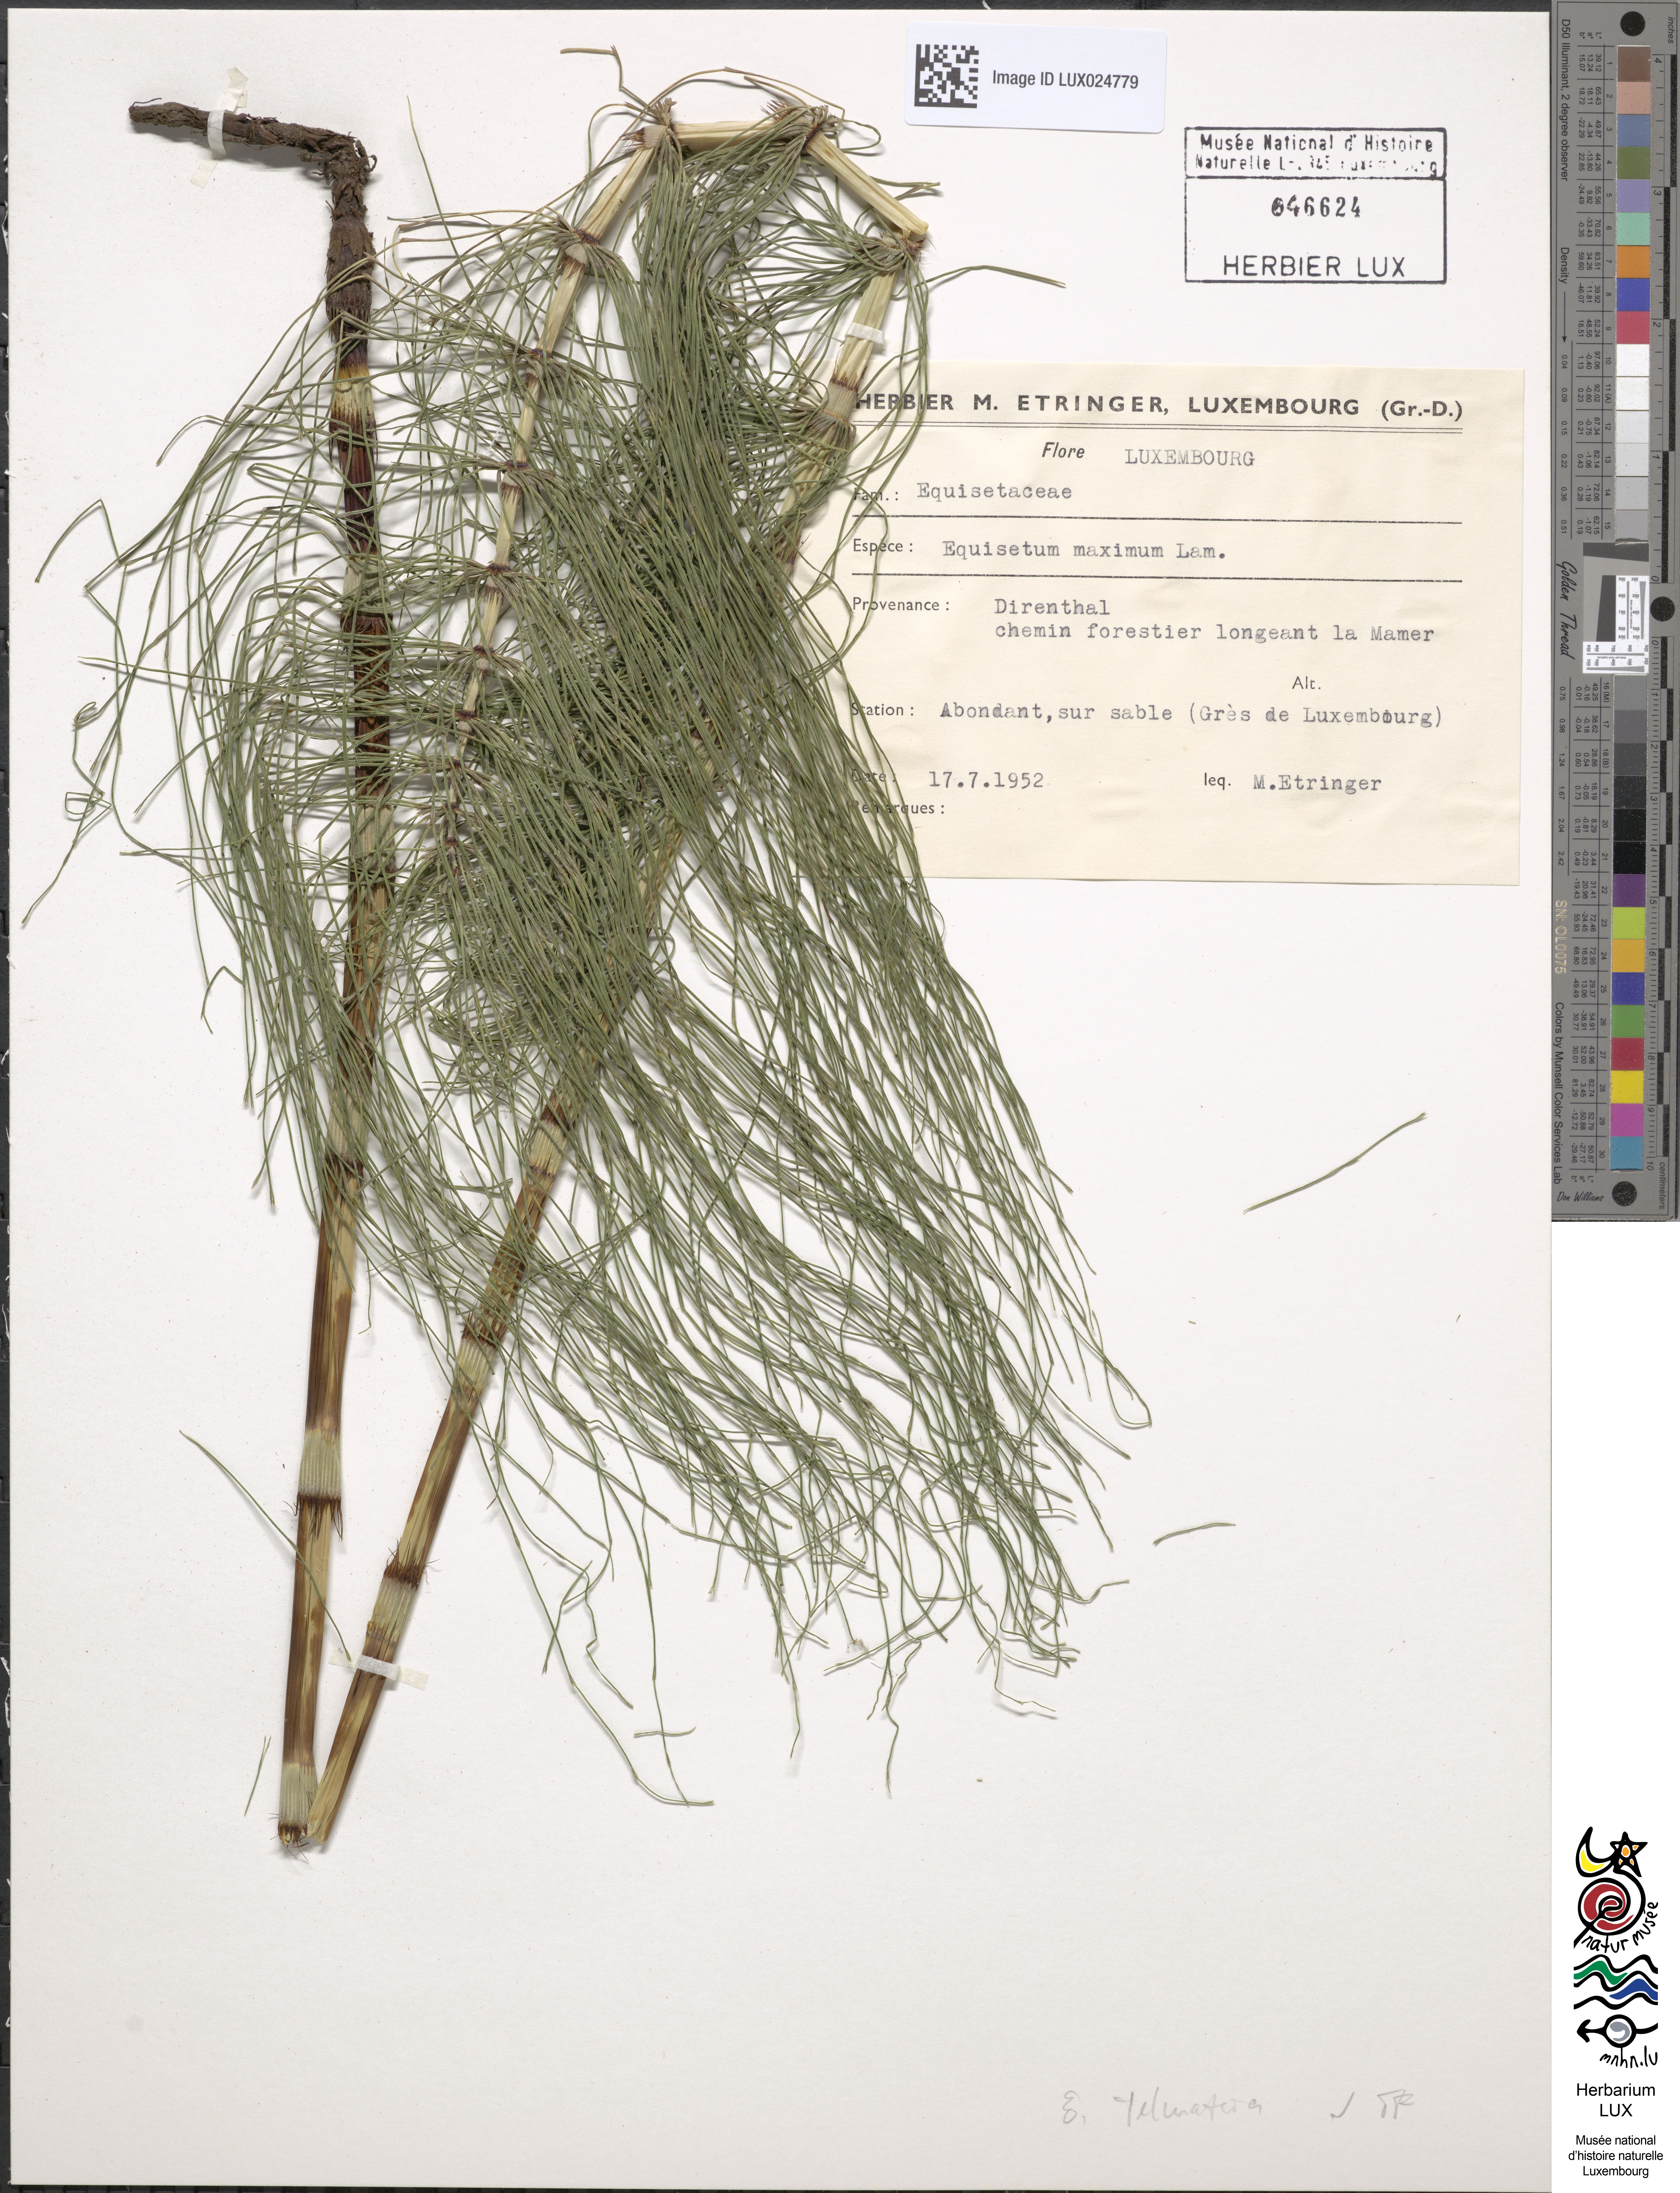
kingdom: Plantae
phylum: Tracheophyta
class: Polypodiopsida
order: Equisetales
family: Equisetaceae
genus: Equisetum
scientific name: Equisetum telmateia
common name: Great horsetail
